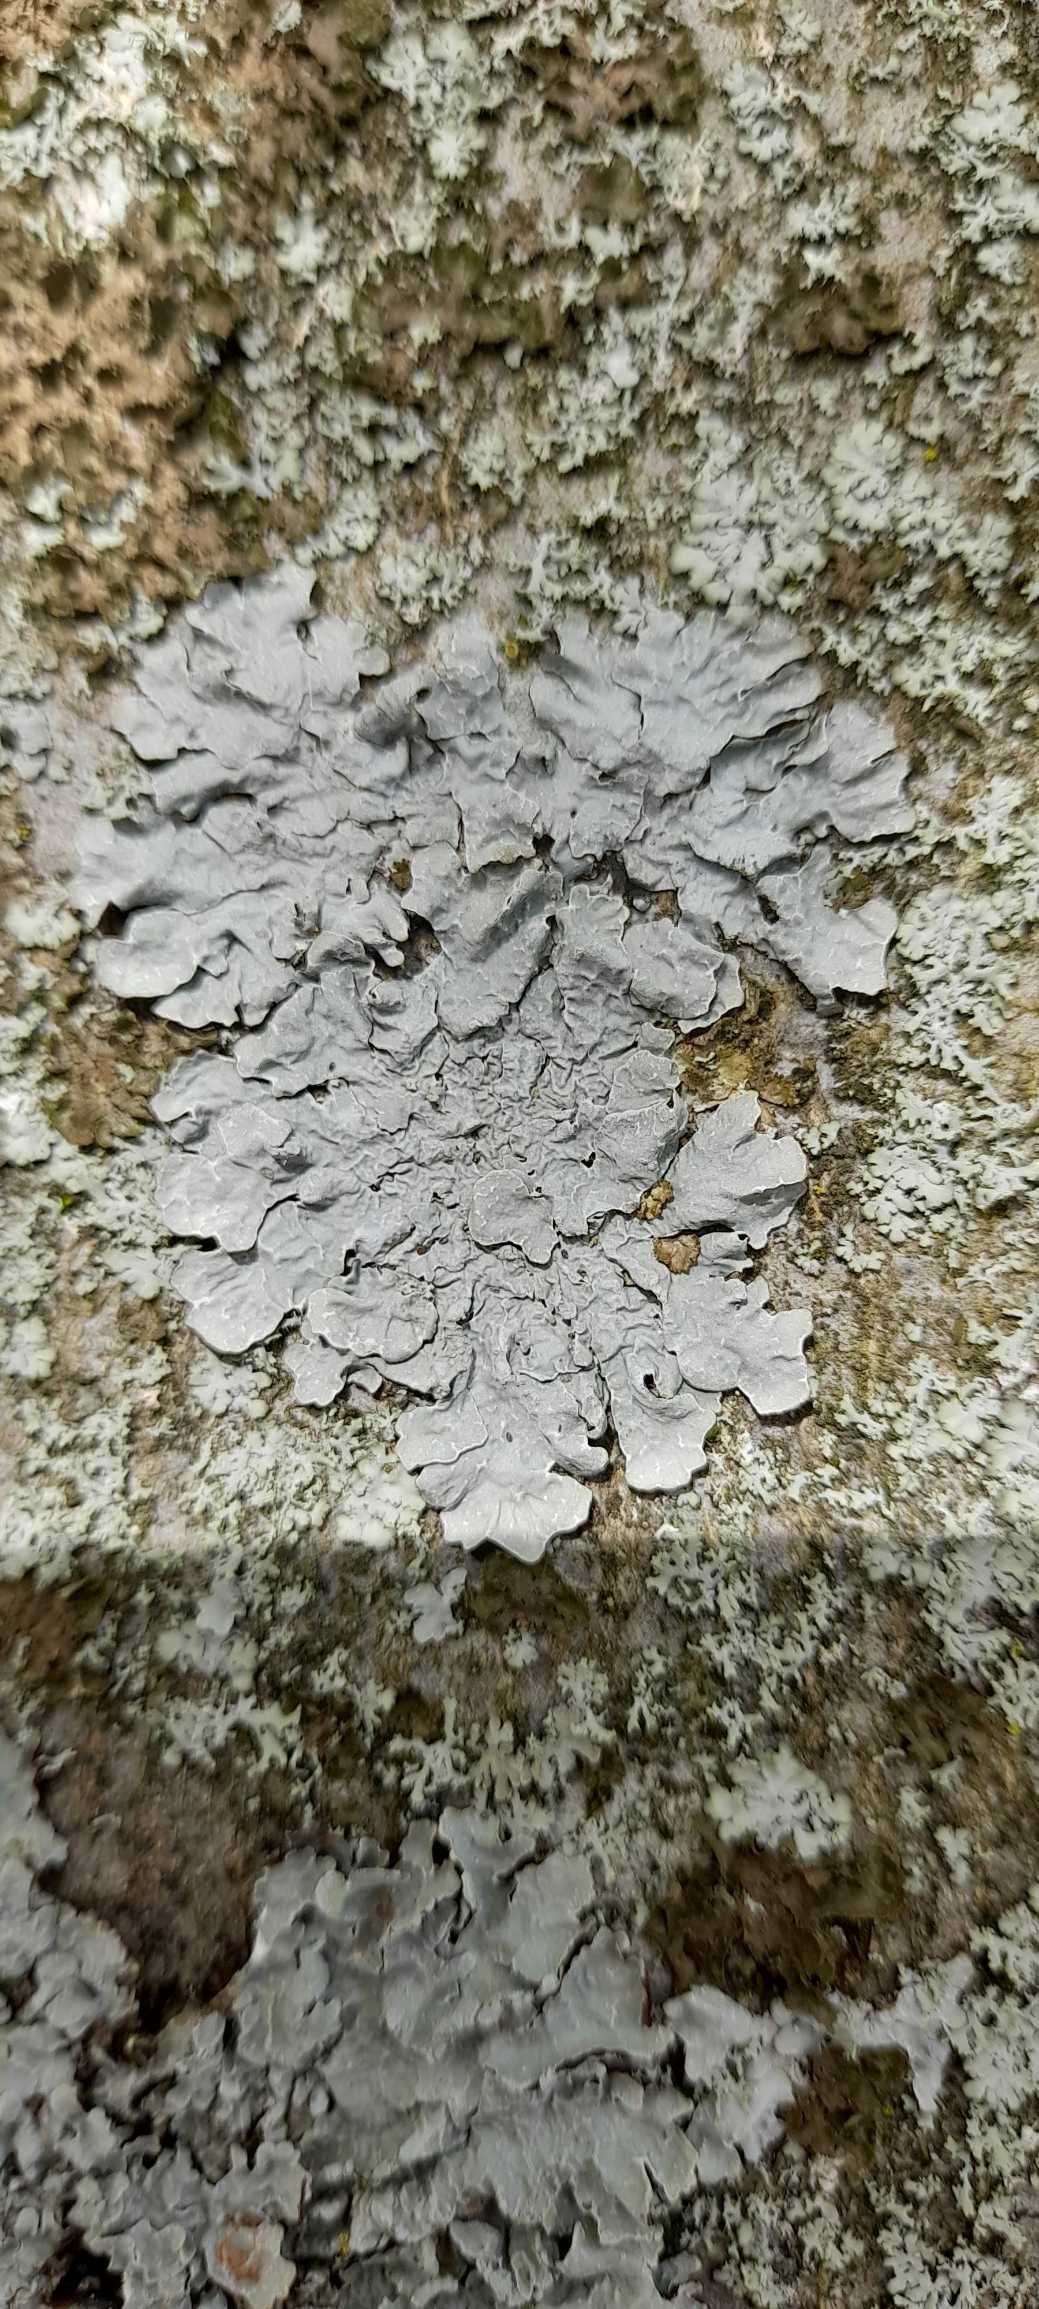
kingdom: Fungi
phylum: Ascomycota
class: Lecanoromycetes
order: Lecanorales
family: Parmeliaceae
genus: Parmelia
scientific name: Parmelia sulcata
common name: Rynket skållav
